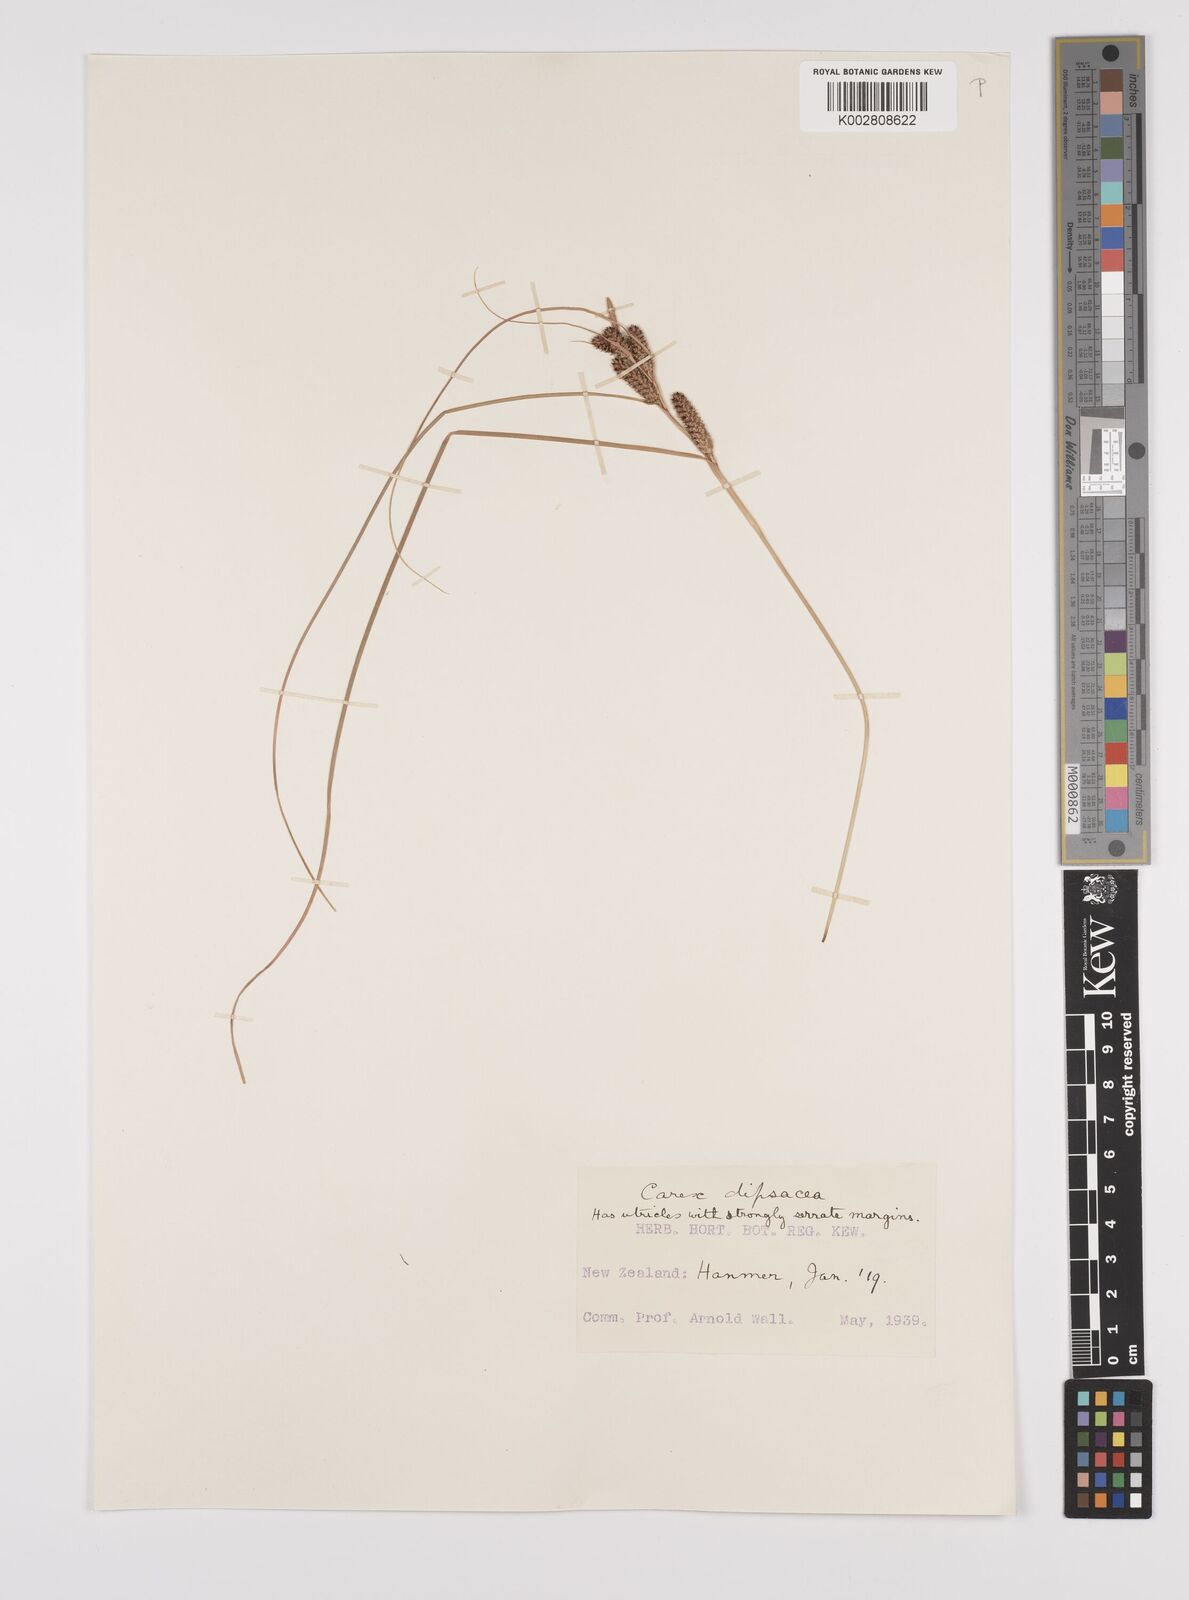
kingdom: Plantae
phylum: Tracheophyta
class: Liliopsida
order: Poales
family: Cyperaceae
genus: Carex
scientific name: Carex dipsacea
